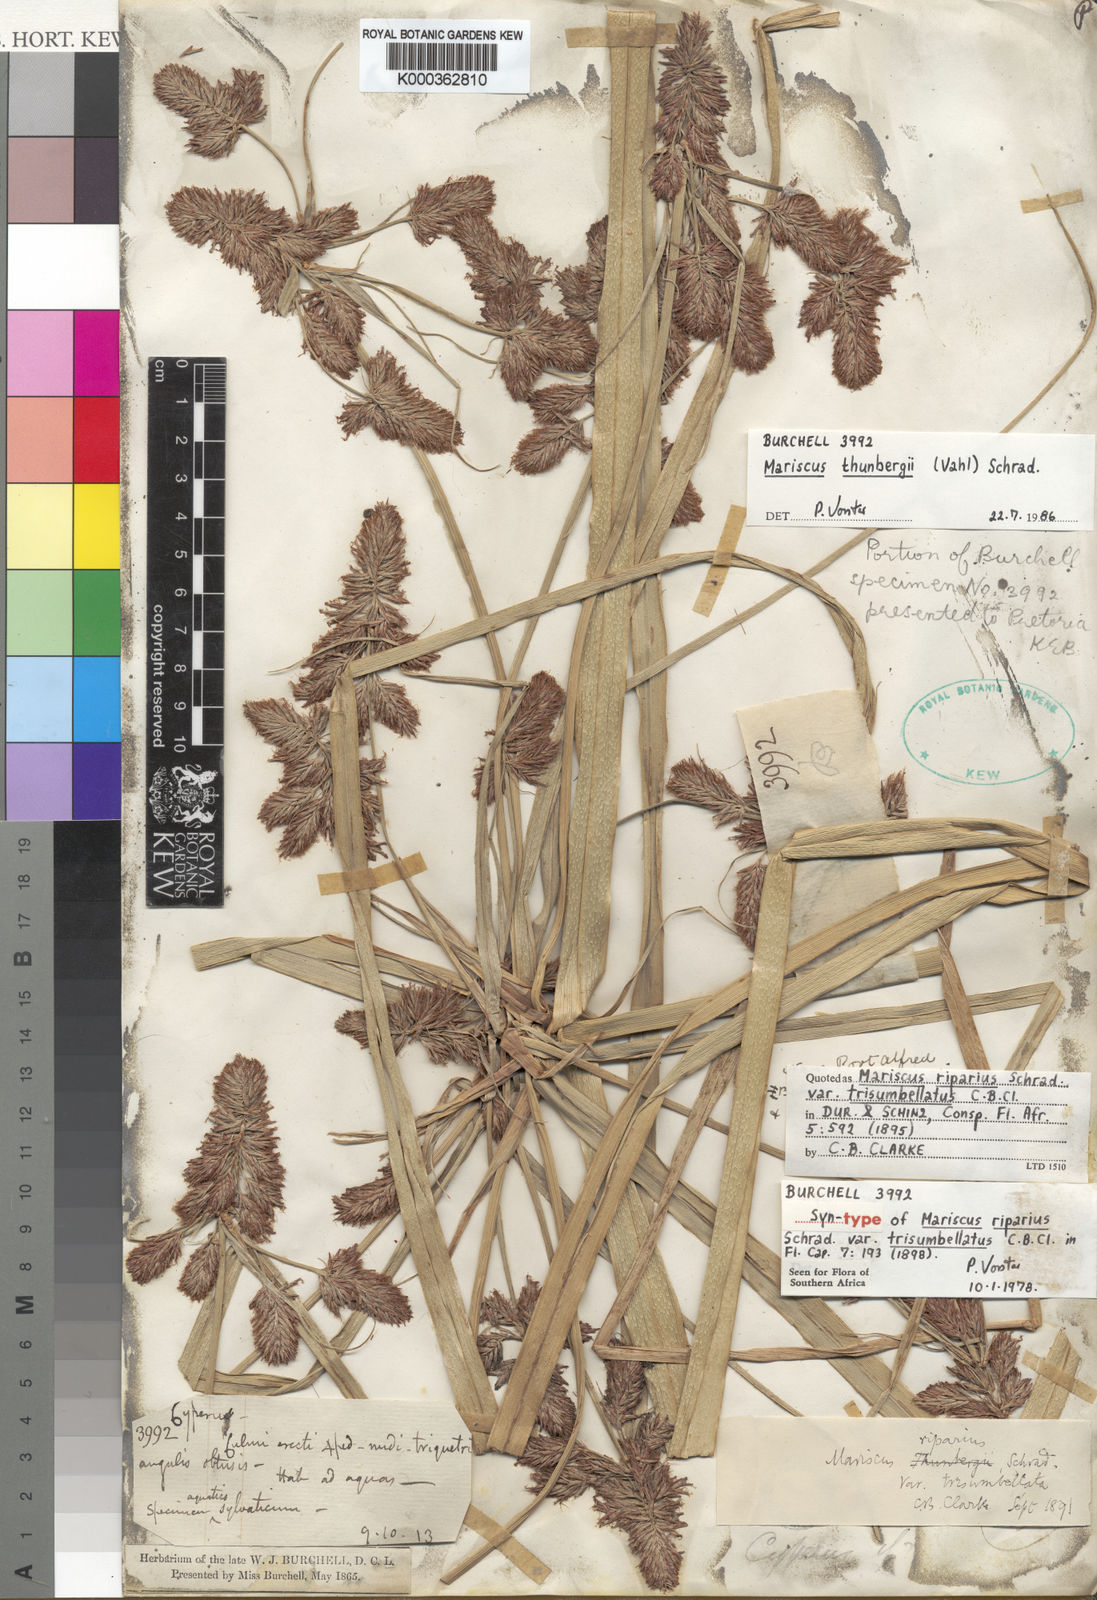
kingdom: Plantae
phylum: Tracheophyta
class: Liliopsida
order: Poales
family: Cyperaceae
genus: Cyperus
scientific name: Cyperus thunbergii
